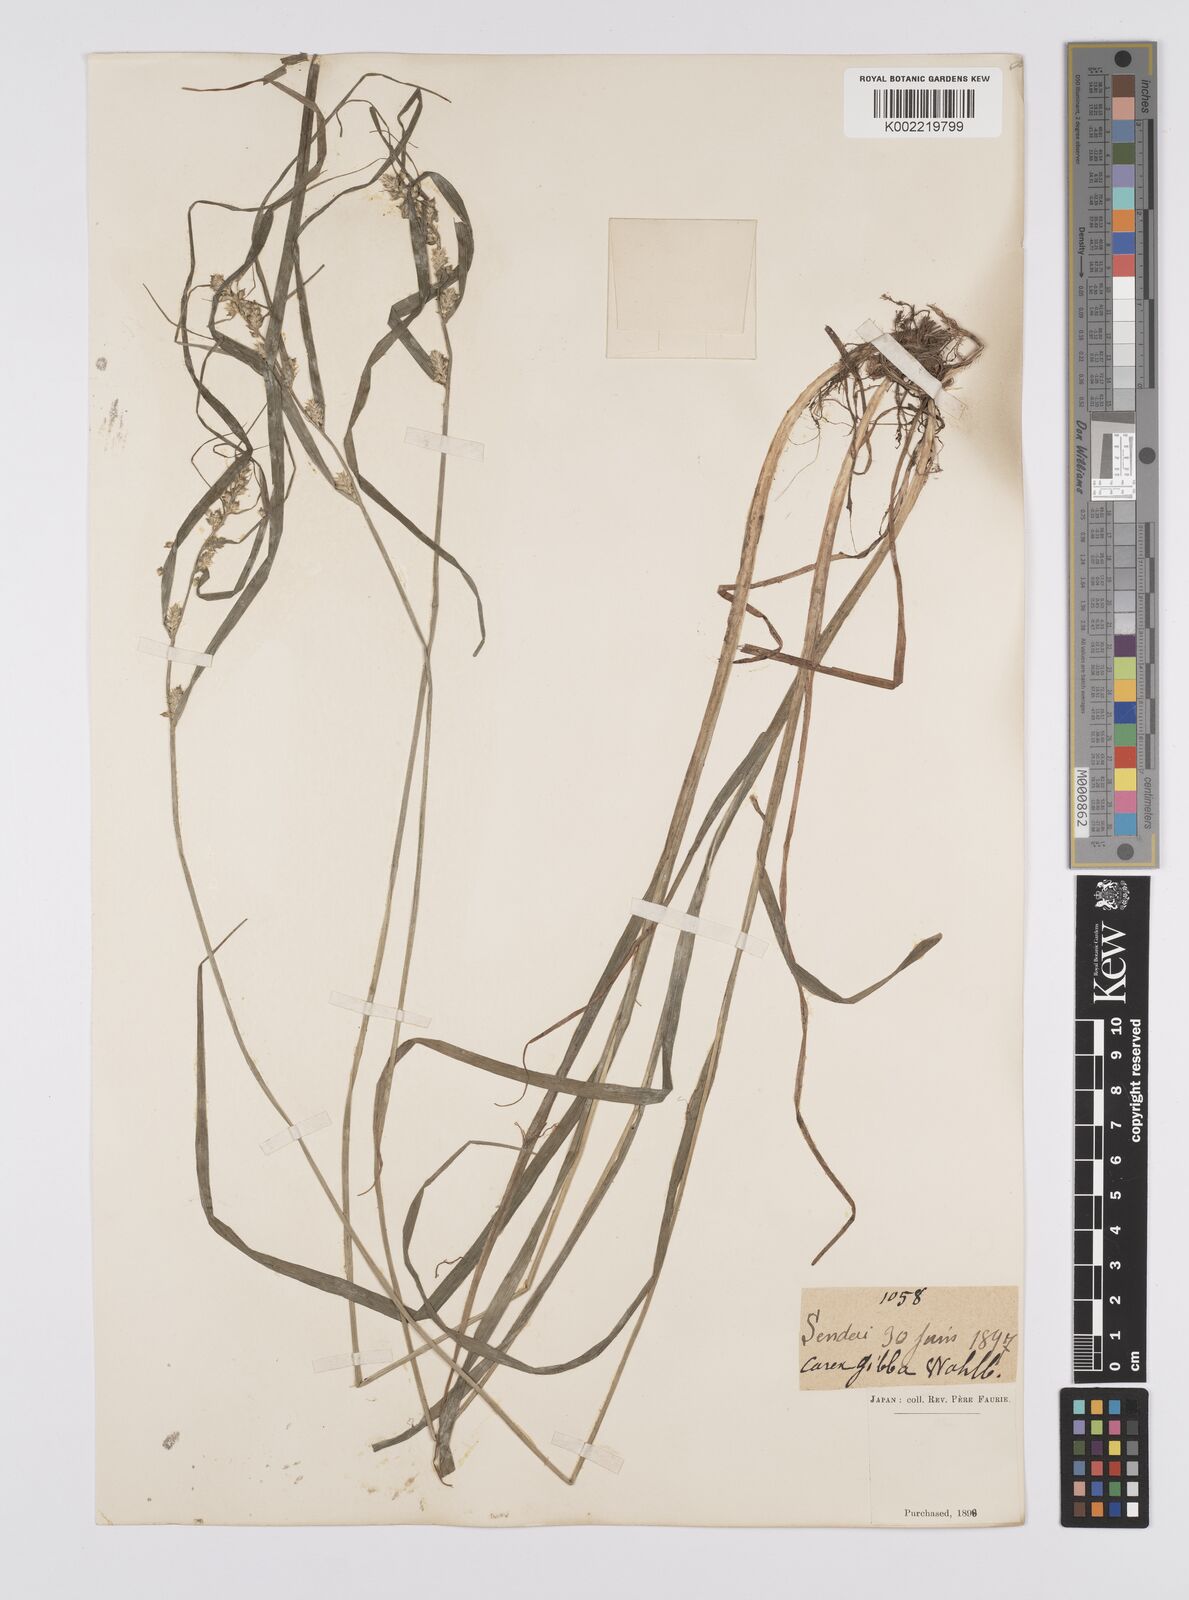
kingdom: Plantae
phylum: Tracheophyta
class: Liliopsida
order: Poales
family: Cyperaceae
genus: Carex
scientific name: Carex gibba
